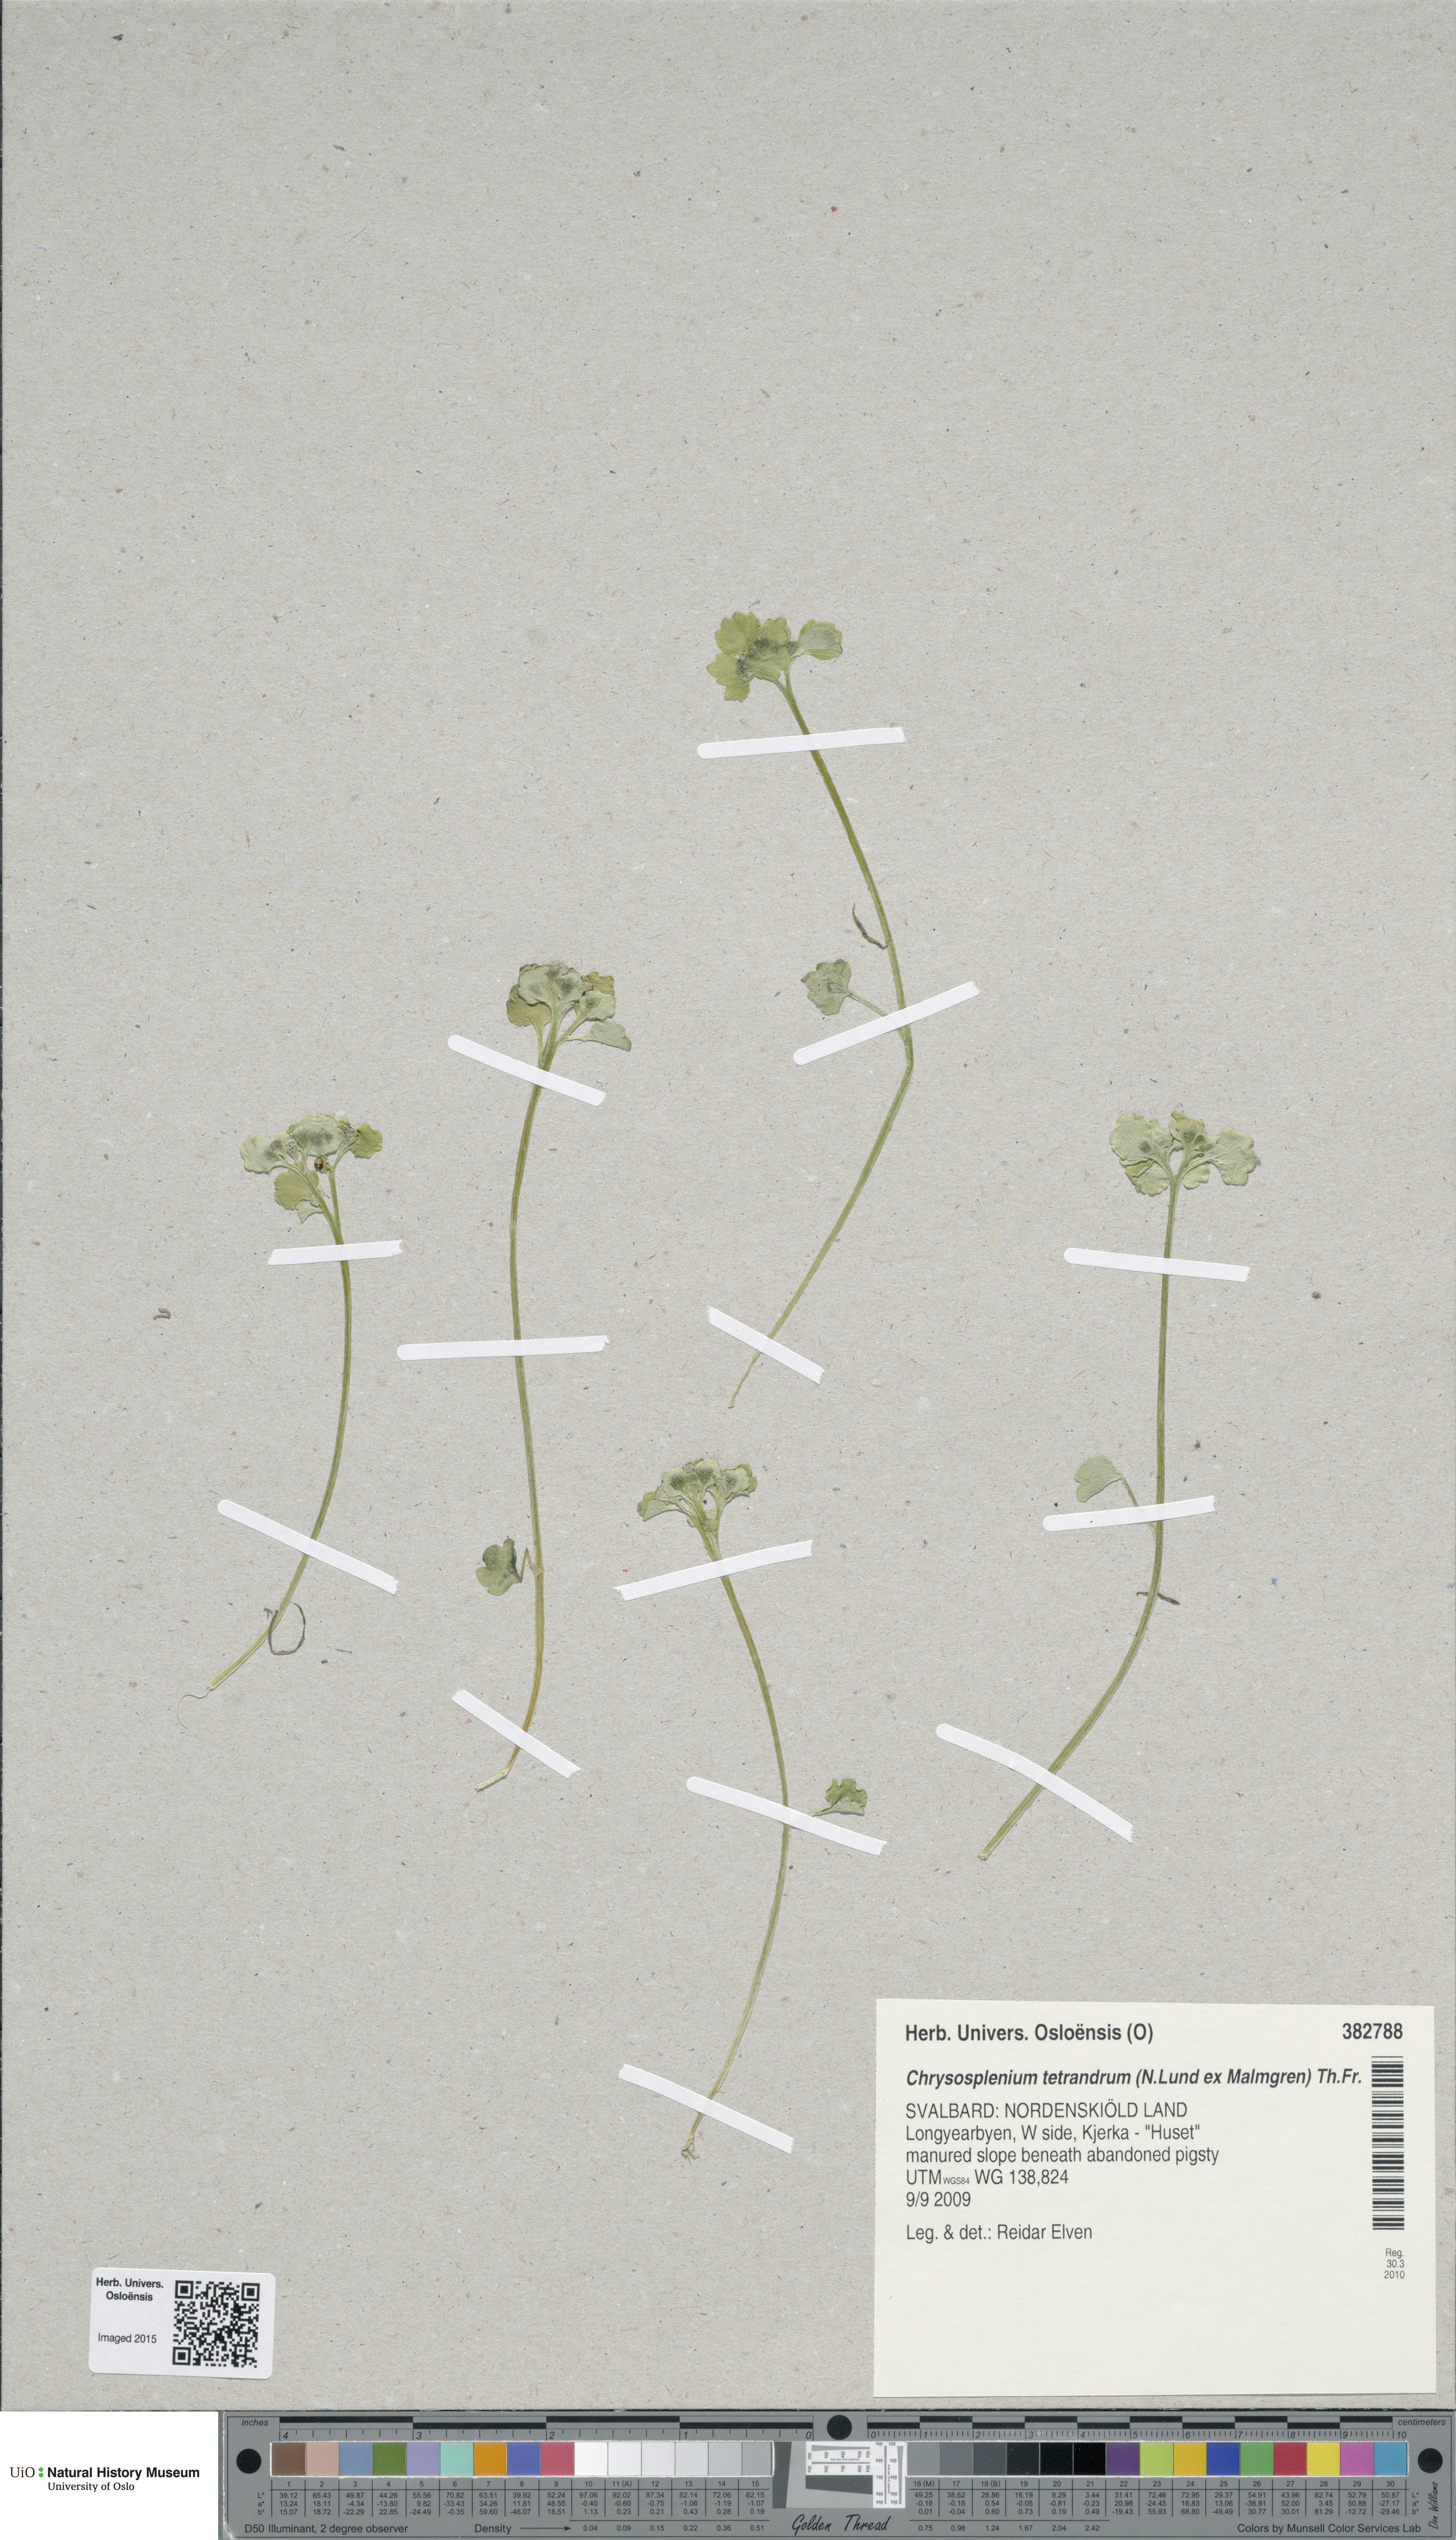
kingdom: Plantae
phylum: Tracheophyta
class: Magnoliopsida
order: Saxifragales
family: Saxifragaceae
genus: Chrysosplenium
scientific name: Chrysosplenium tetrandrum
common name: Green saxifrage
